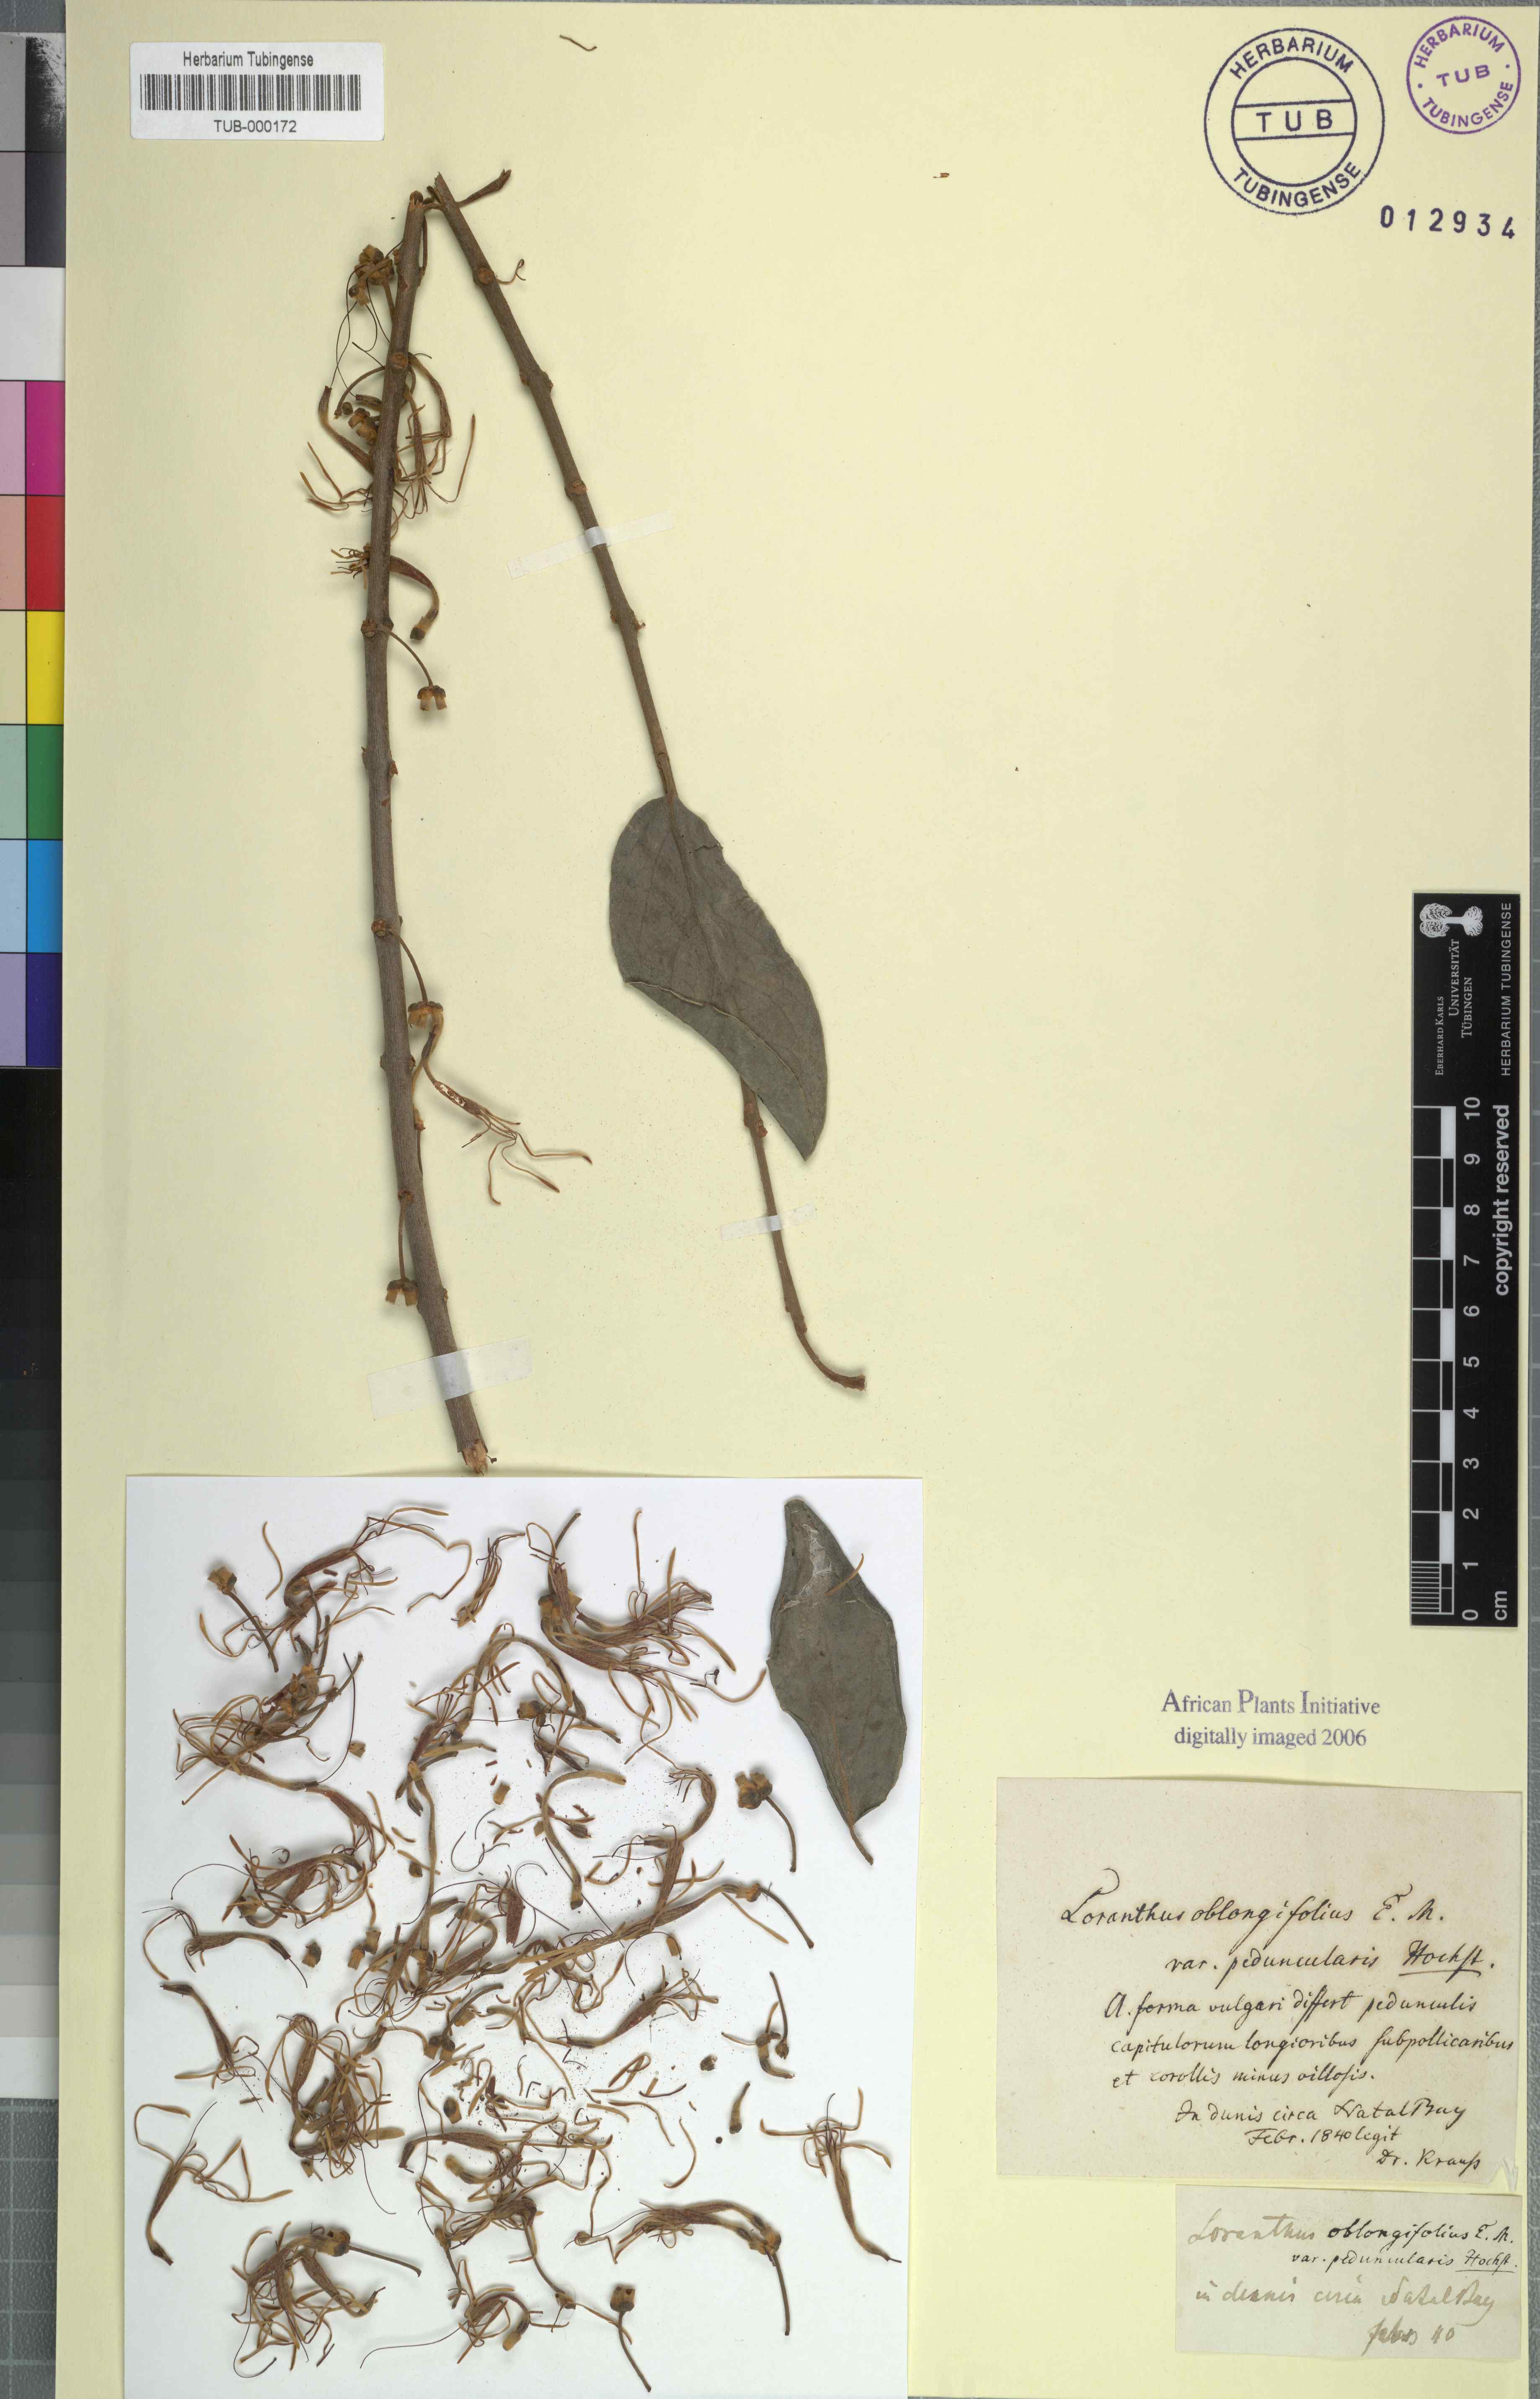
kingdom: Plantae
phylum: Tracheophyta
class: Magnoliopsida
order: Santalales
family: Loranthaceae
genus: Tapinanthus
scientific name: Tapinanthus oleifolius
